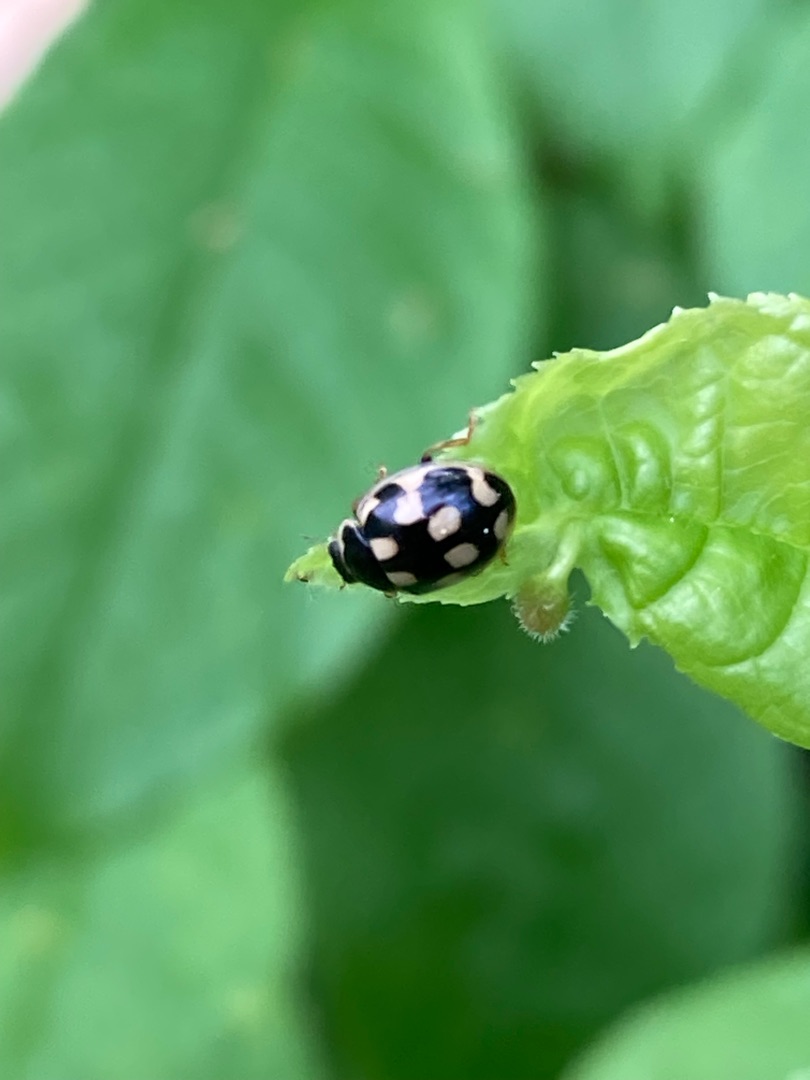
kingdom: Animalia
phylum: Arthropoda
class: Insecta
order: Coleoptera
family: Coccinellidae
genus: Propylaea
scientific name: Propylaea quatuordecimpunctata
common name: Skakbræt
